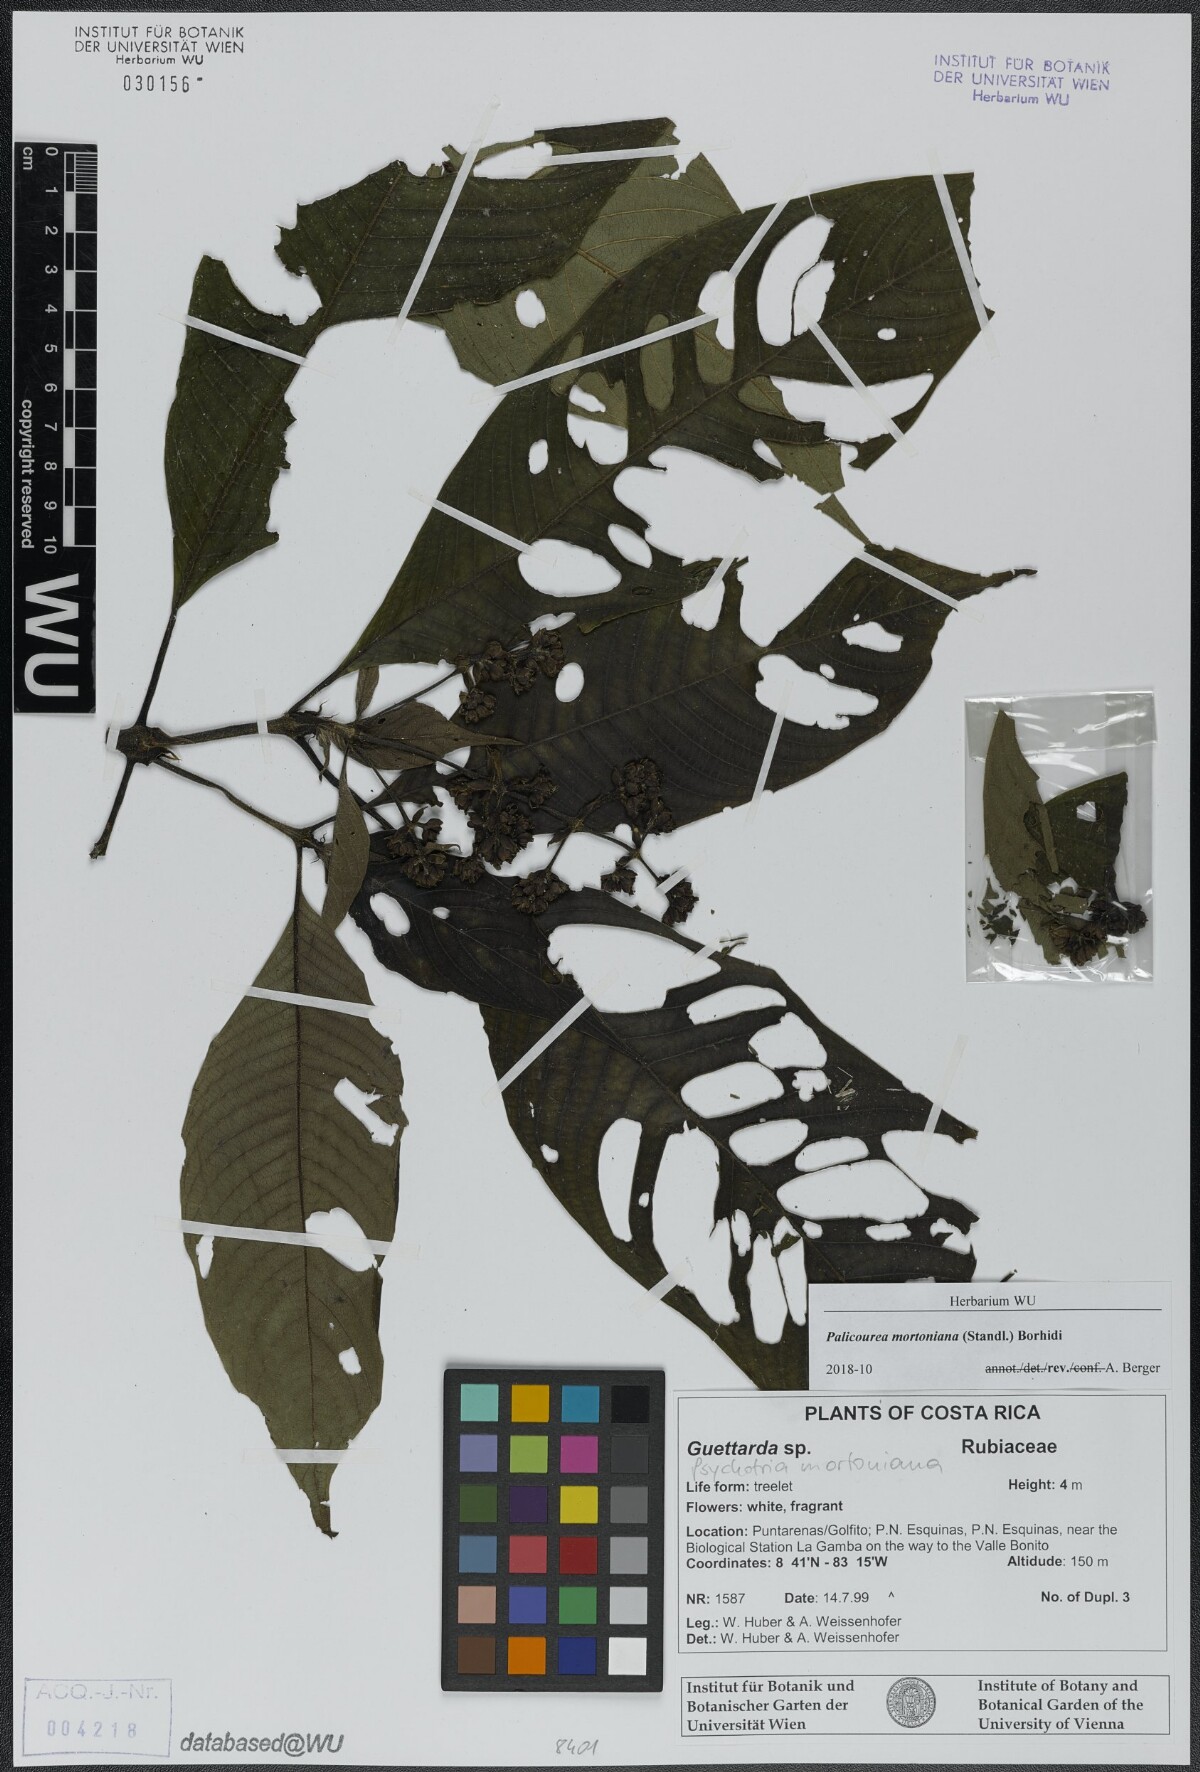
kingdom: Plantae
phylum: Tracheophyta
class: Magnoliopsida
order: Gentianales
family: Rubiaceae
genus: Palicourea
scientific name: Palicourea mortoniana
